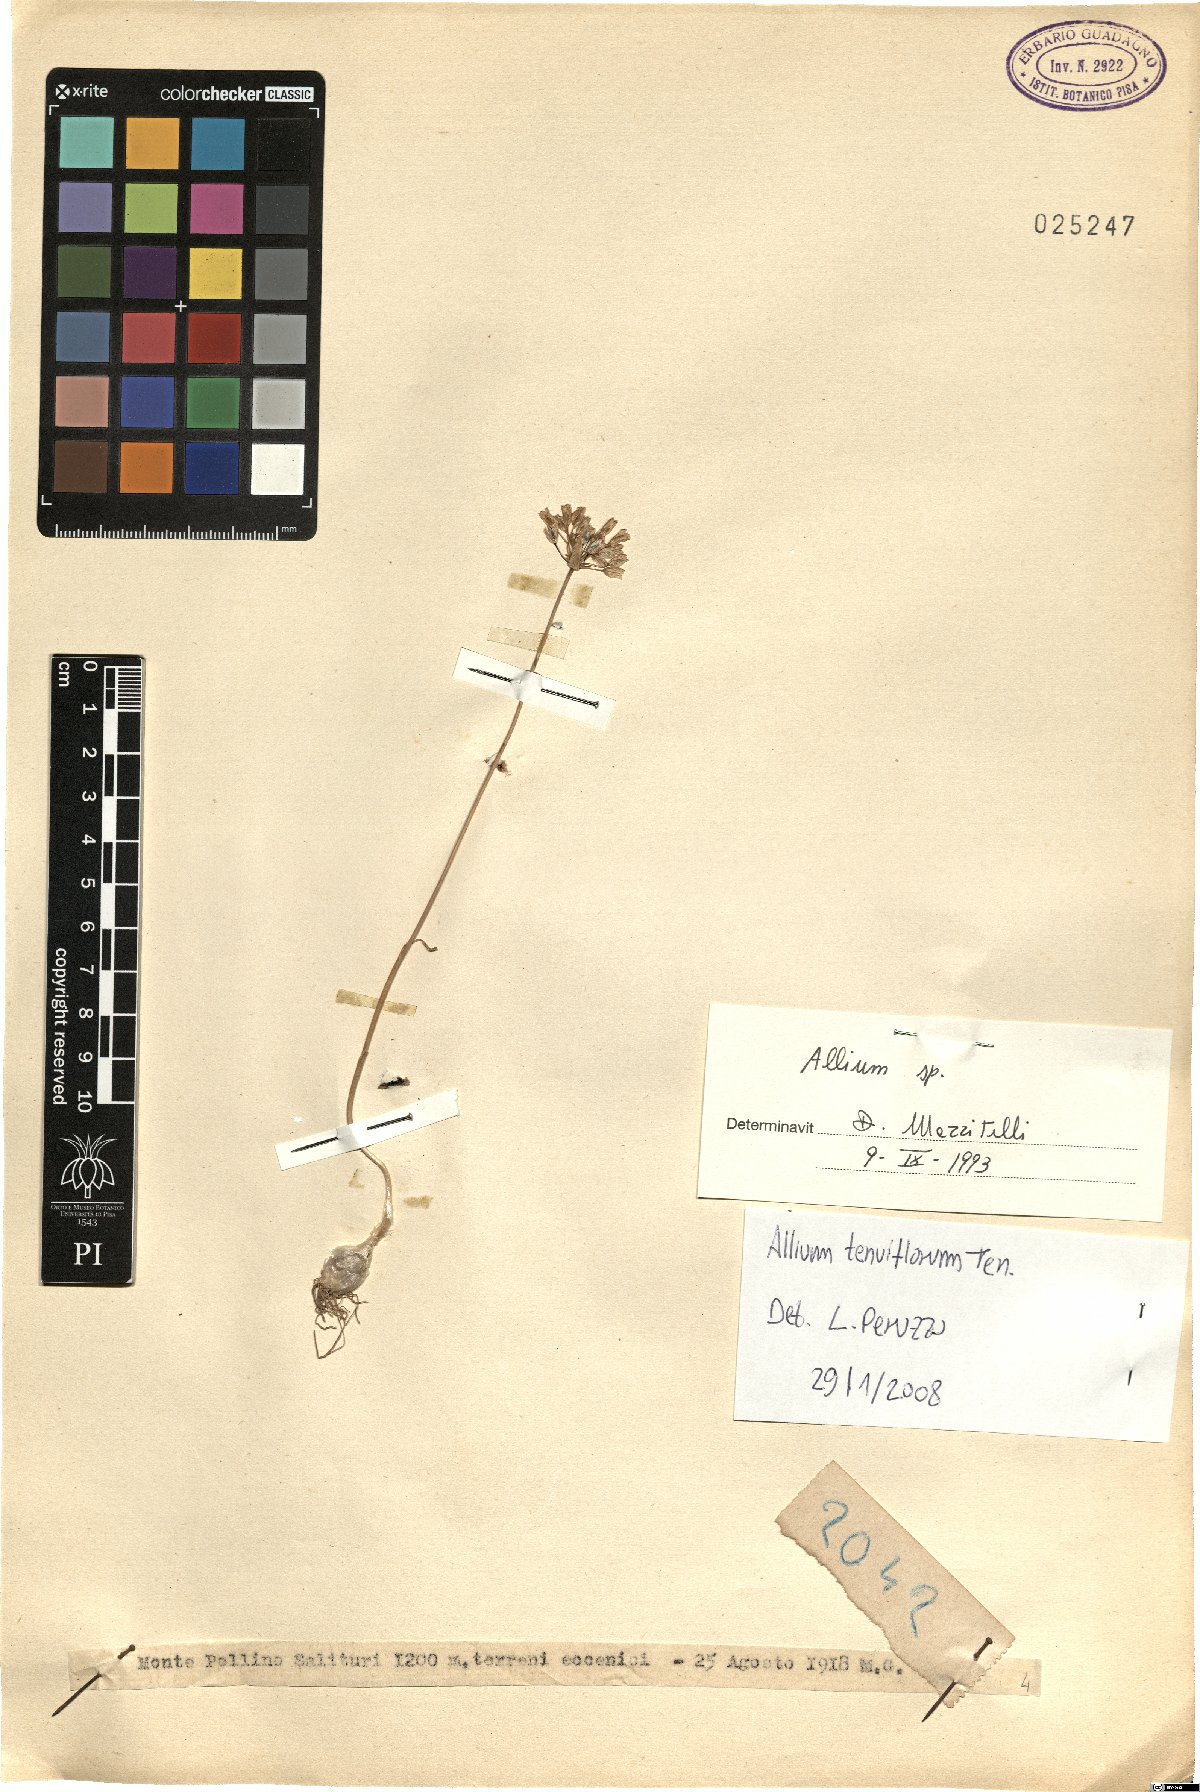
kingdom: Plantae
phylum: Tracheophyta
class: Liliopsida
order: Asparagales
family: Amaryllidaceae
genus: Allium
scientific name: Allium tenuiflorum
